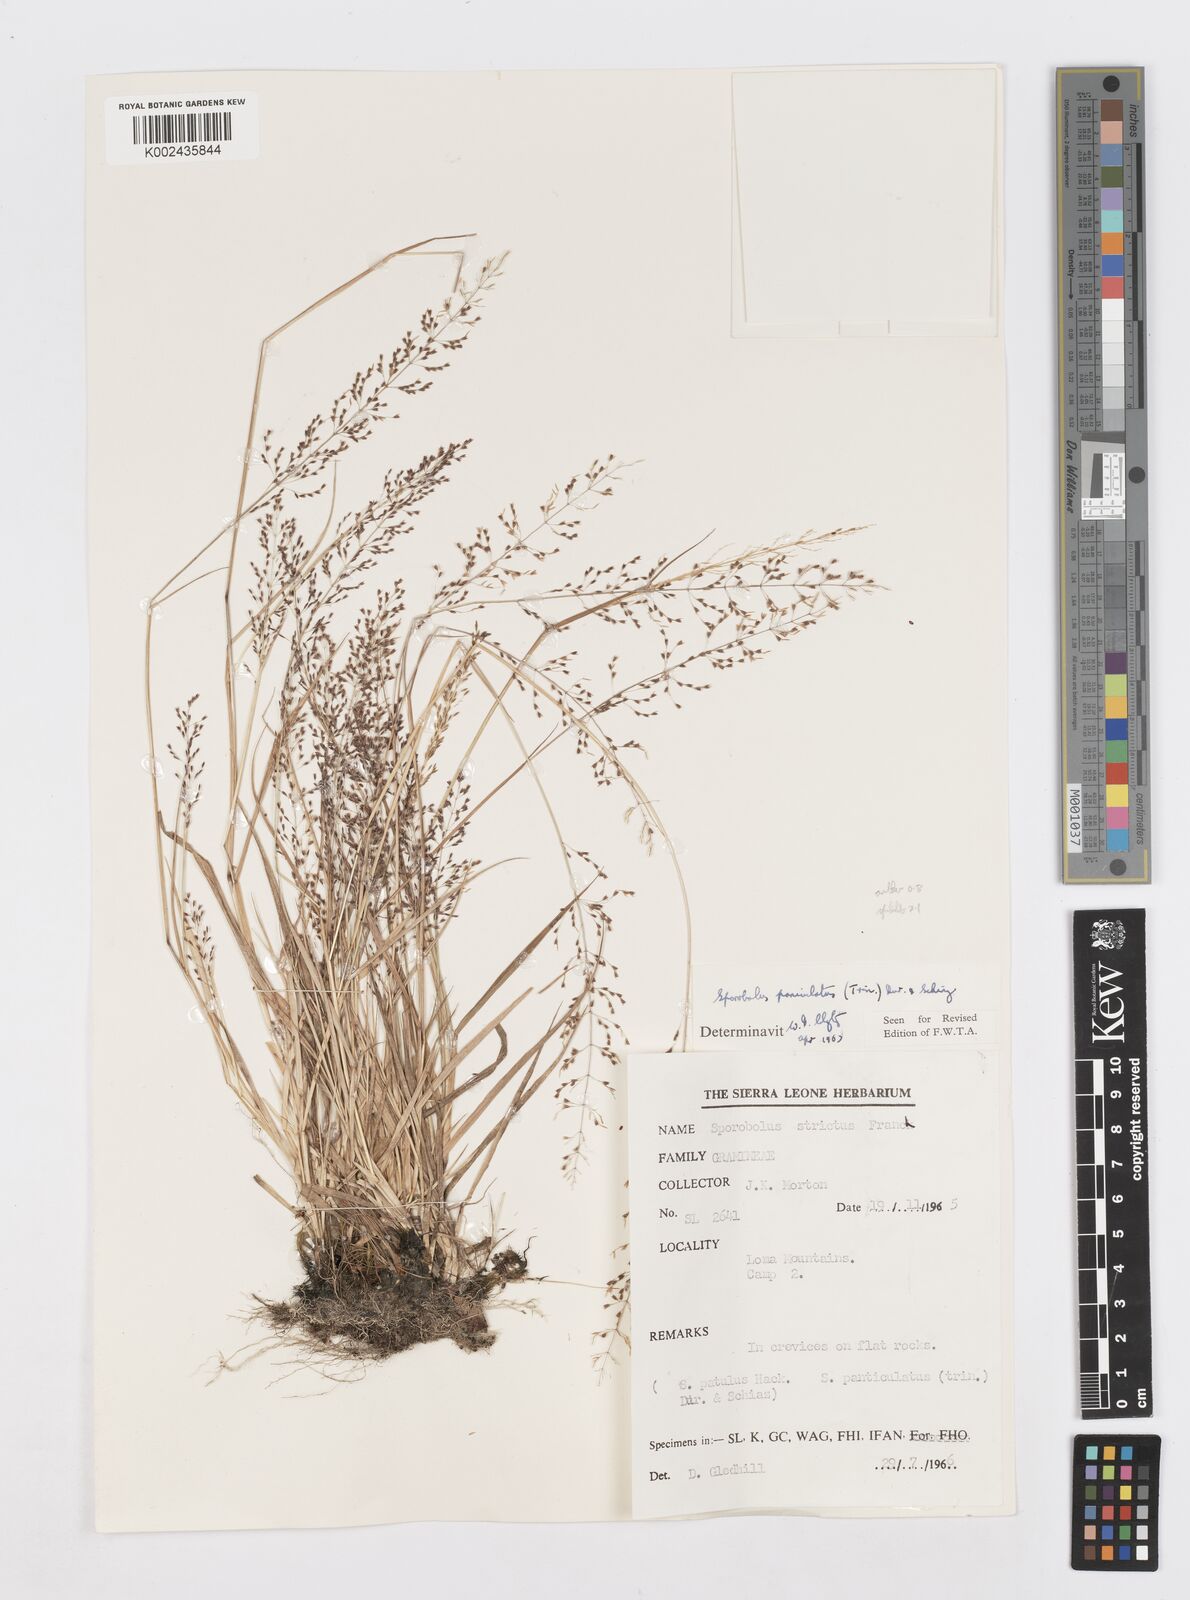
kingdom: Plantae
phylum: Tracheophyta
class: Liliopsida
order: Poales
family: Poaceae
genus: Sporobolus
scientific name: Sporobolus paniculatus
